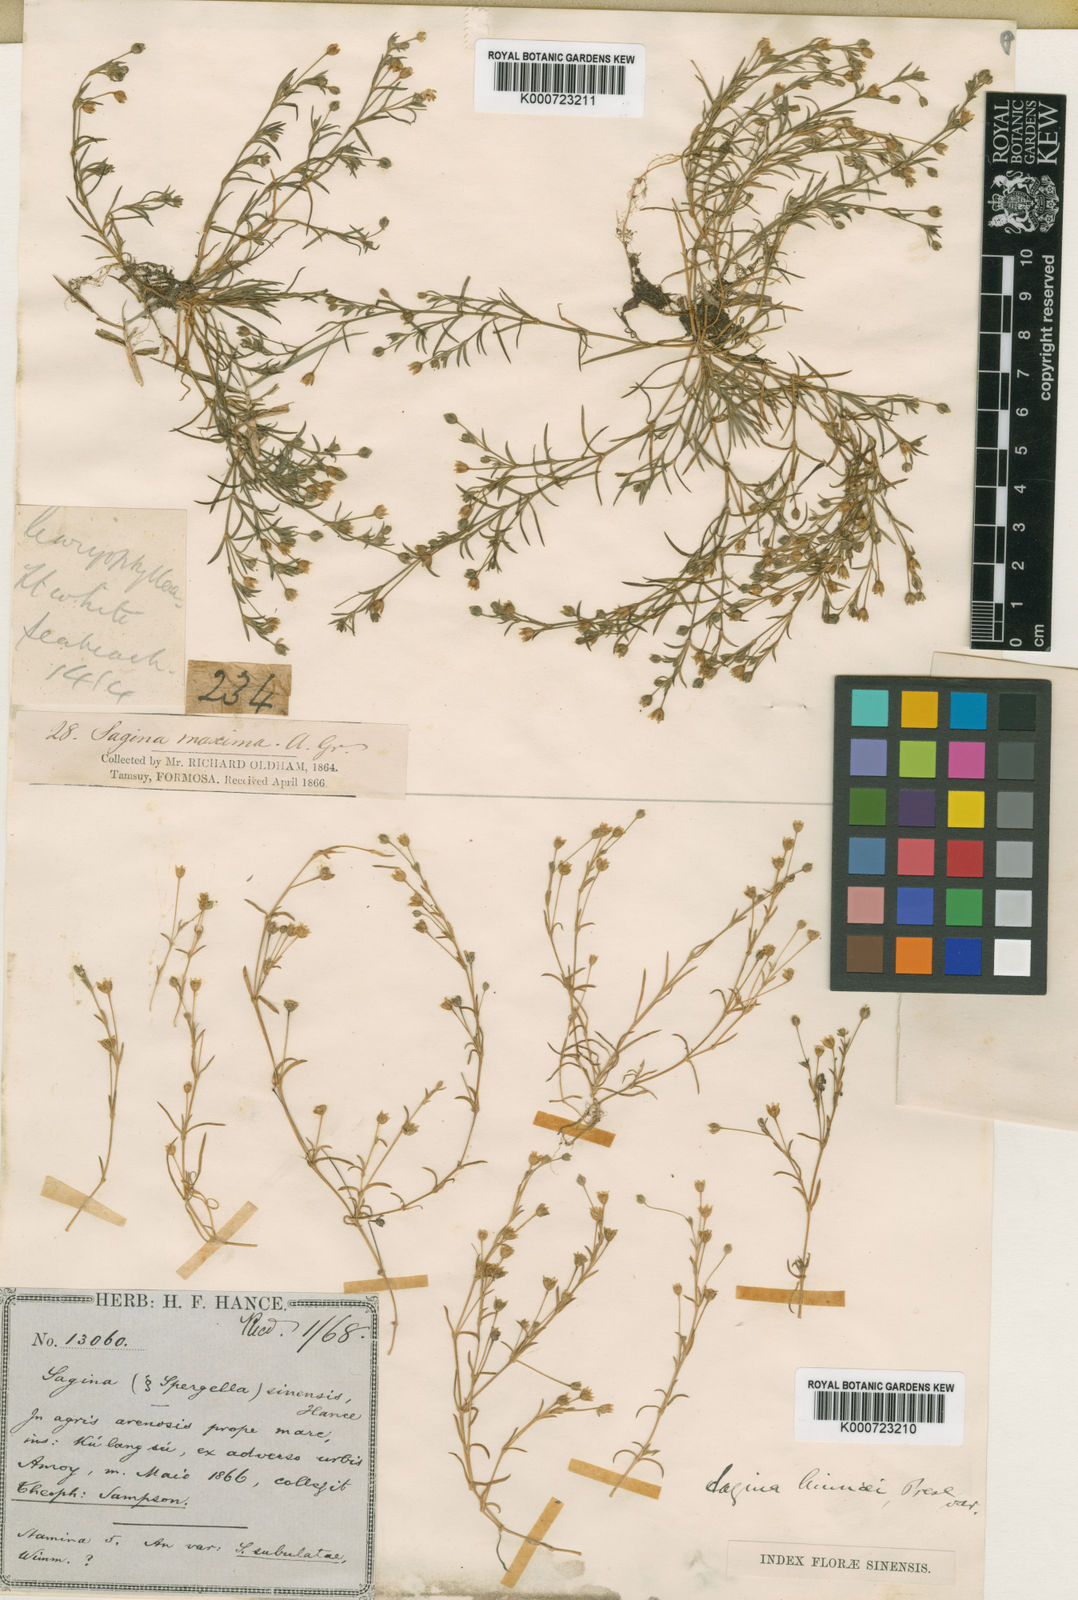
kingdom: Plantae
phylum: Tracheophyta
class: Magnoliopsida
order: Caryophyllales
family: Caryophyllaceae
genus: Sagina
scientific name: Sagina japonica
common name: Japanese pearlwort
